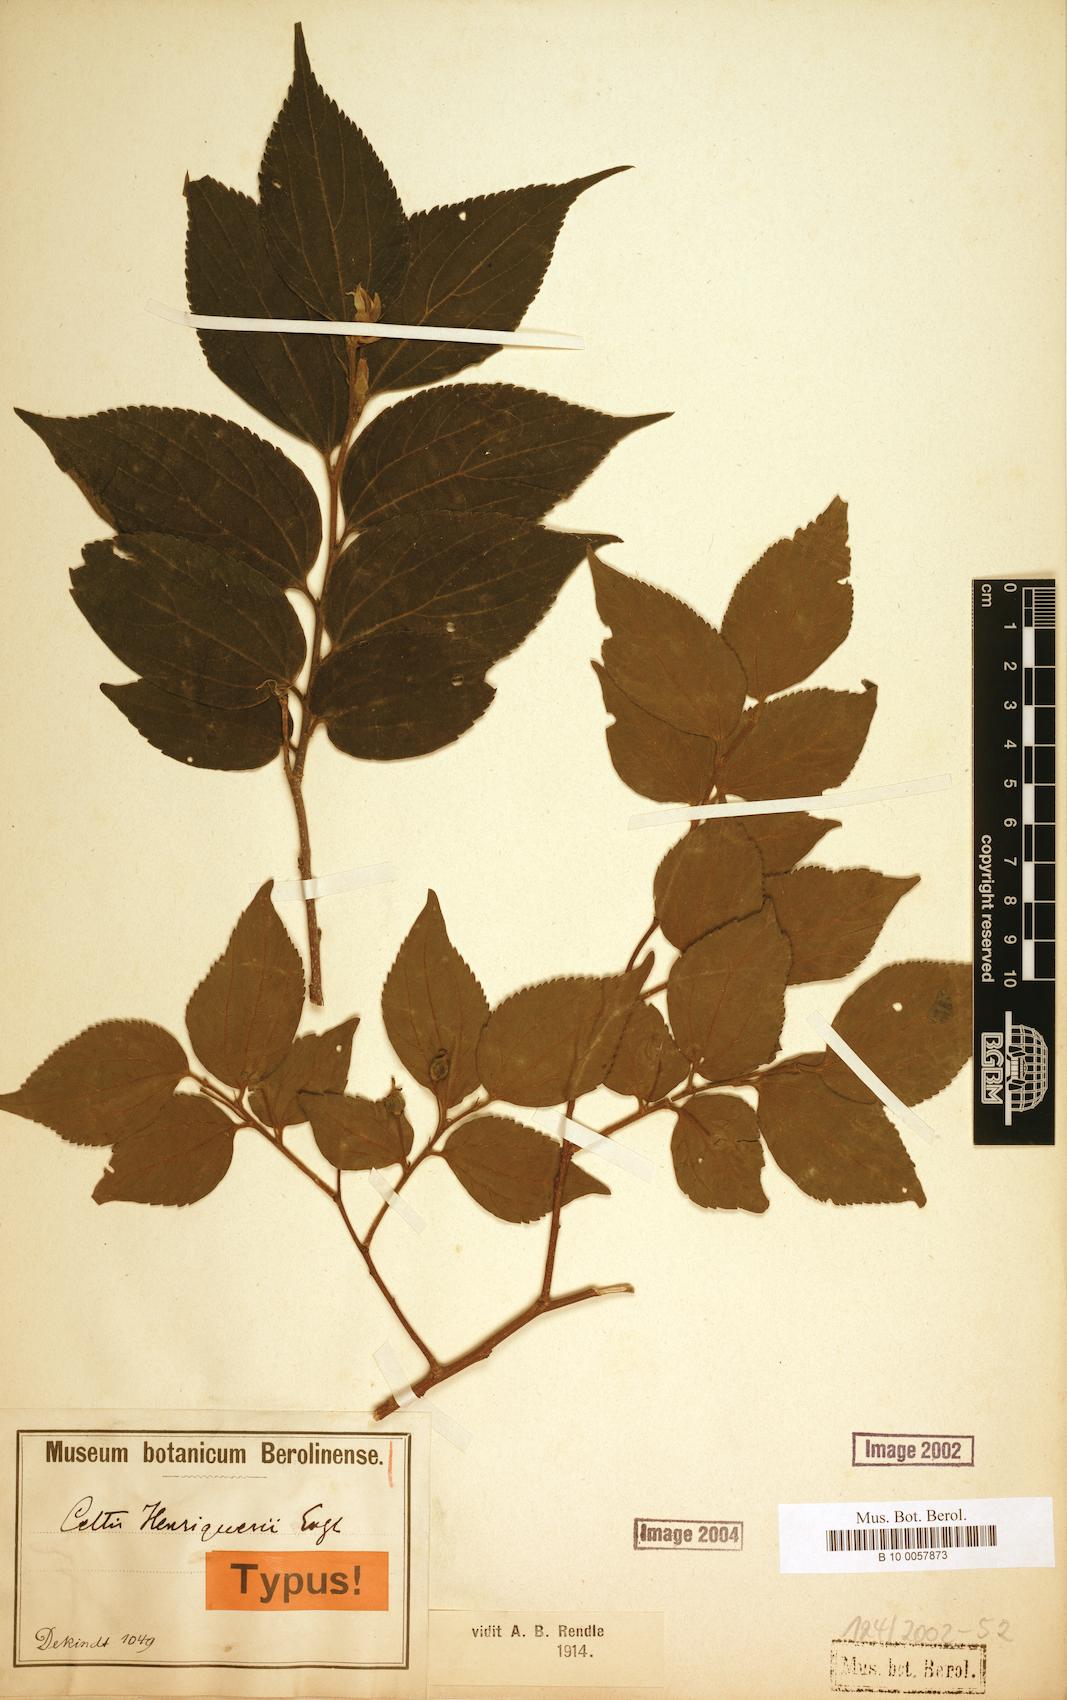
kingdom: Plantae
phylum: Tracheophyta
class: Magnoliopsida
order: Rosales
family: Cannabaceae
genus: Celtis
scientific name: Celtis henriquesii
